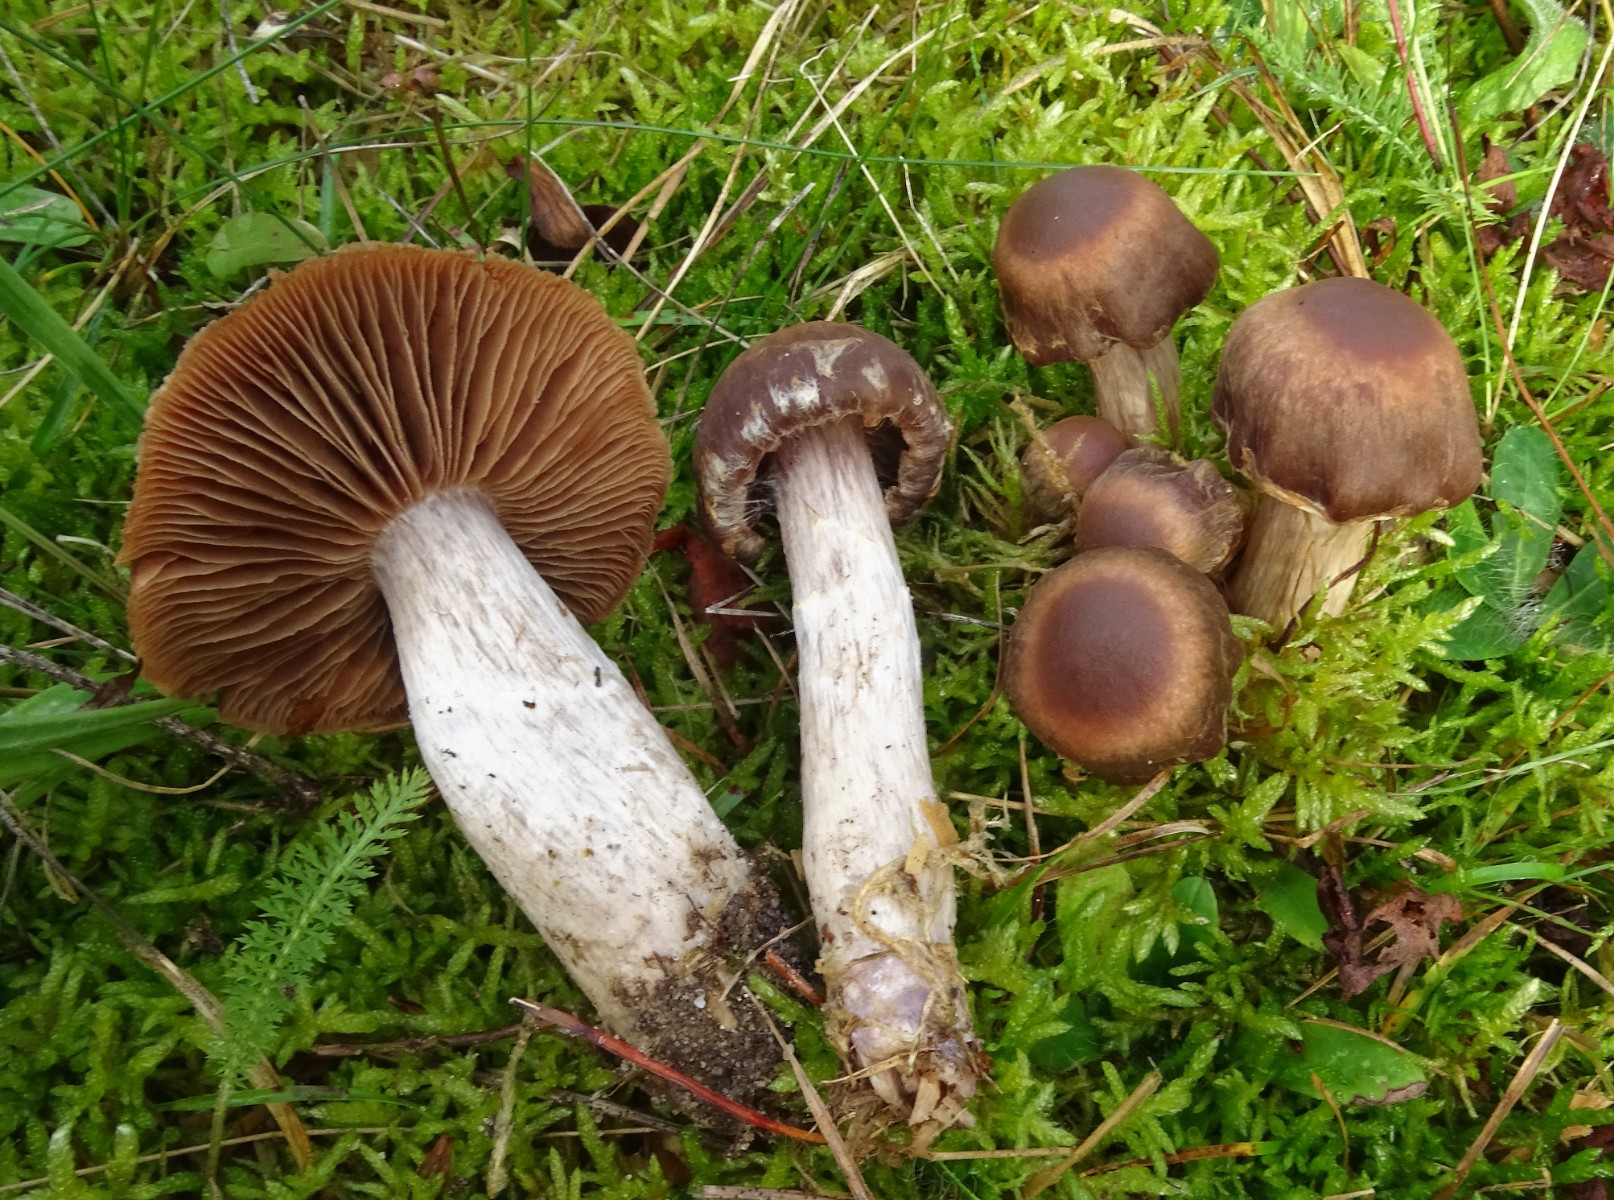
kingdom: Fungi
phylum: Basidiomycota
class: Agaricomycetes
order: Agaricales
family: Cortinariaceae
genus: Cortinarius
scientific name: Cortinarius
